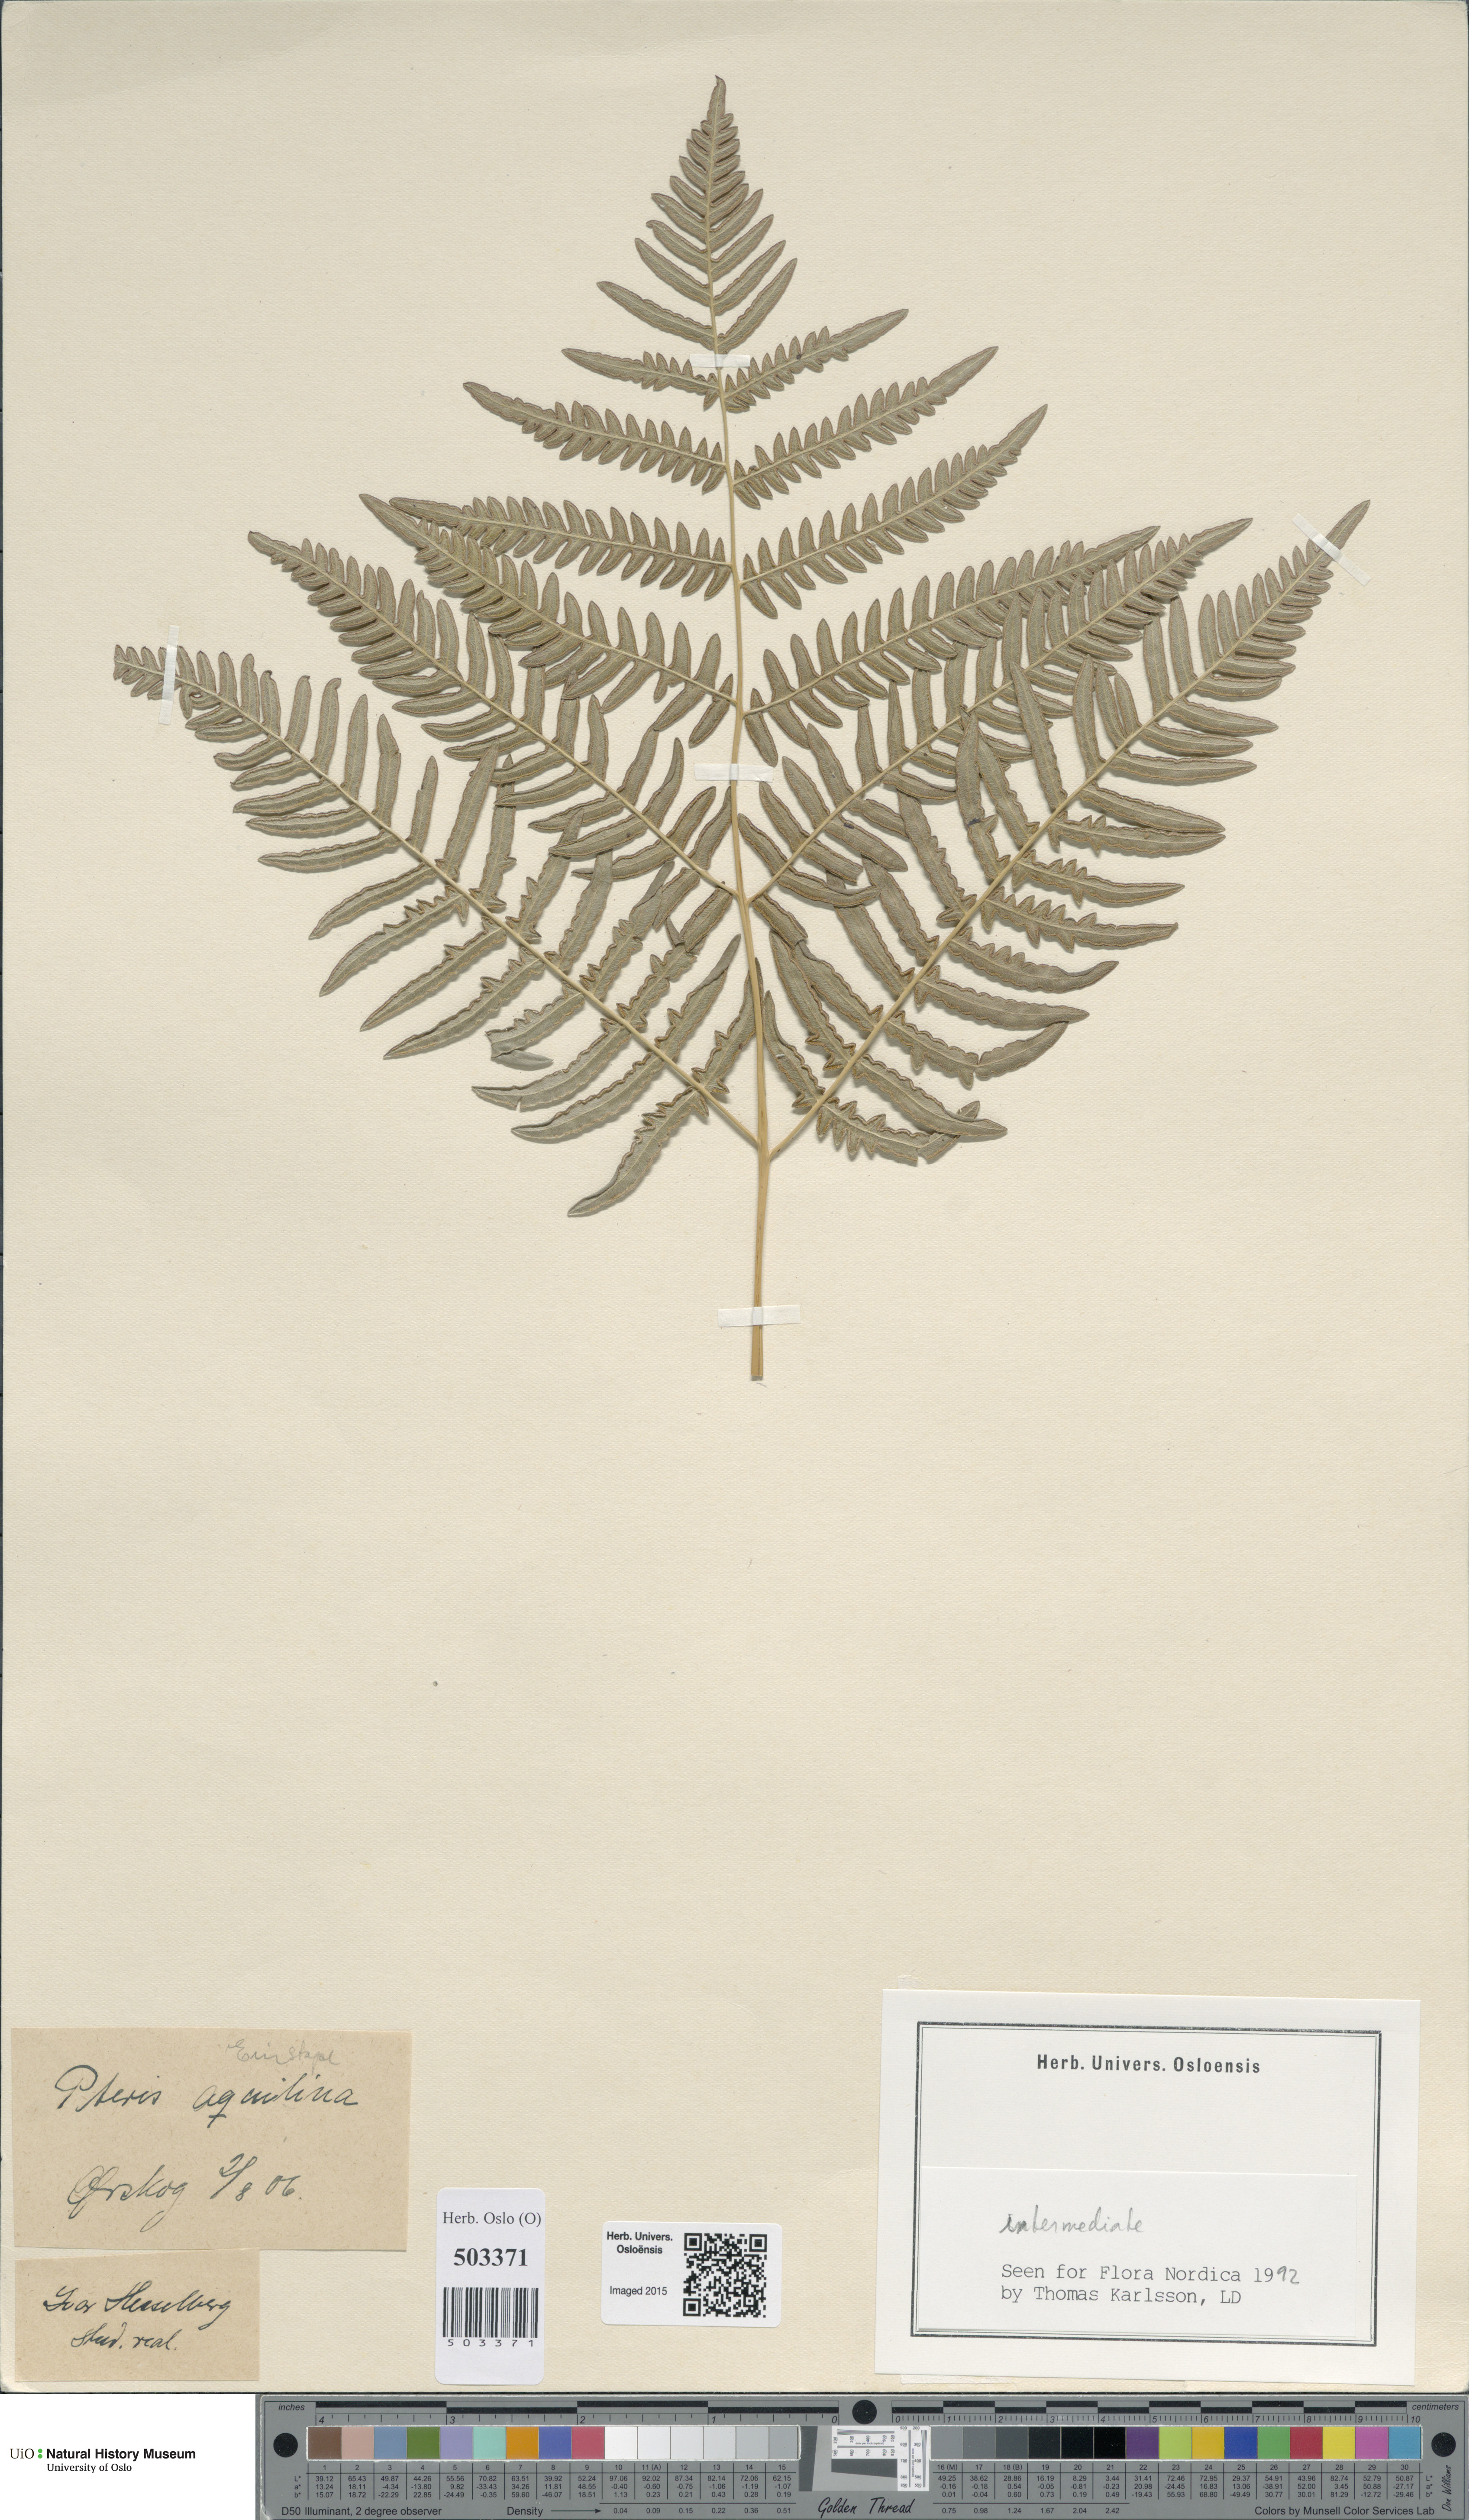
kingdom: Plantae
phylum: Tracheophyta
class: Polypodiopsida
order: Polypodiales
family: Dennstaedtiaceae
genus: Pteridium
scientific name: Pteridium
